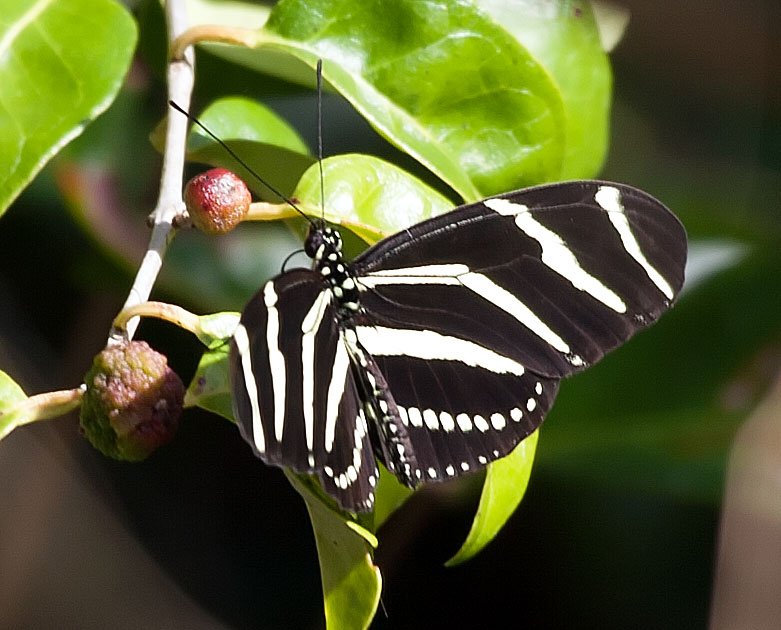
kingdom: Animalia
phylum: Arthropoda
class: Insecta
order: Lepidoptera
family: Nymphalidae
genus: Heliconius
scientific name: Heliconius charithonia
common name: Zebra Longwing
